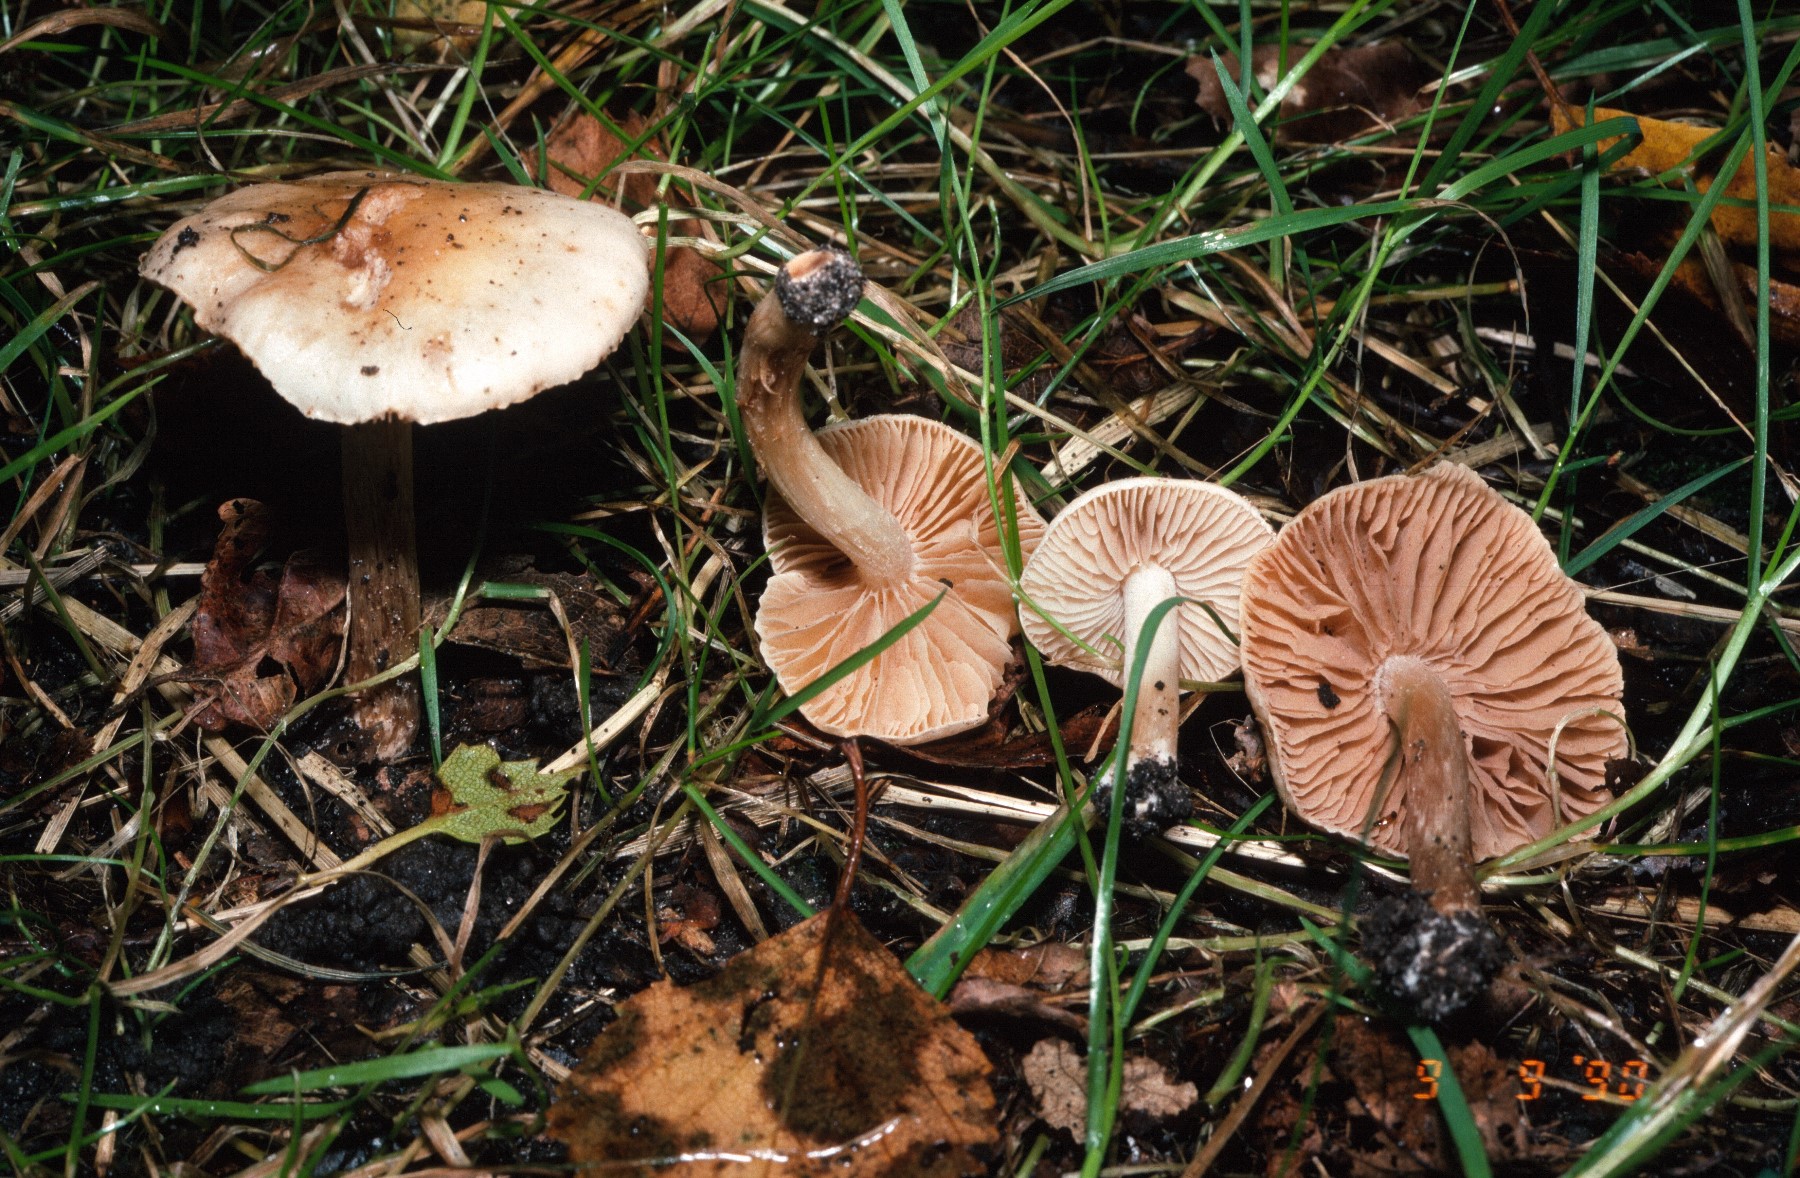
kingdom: Fungi
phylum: Basidiomycota
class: Agaricomycetes
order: Agaricales
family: Hymenogastraceae
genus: Hebeloma
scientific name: Hebeloma sacchariolens
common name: sødtduftende tåreblad
